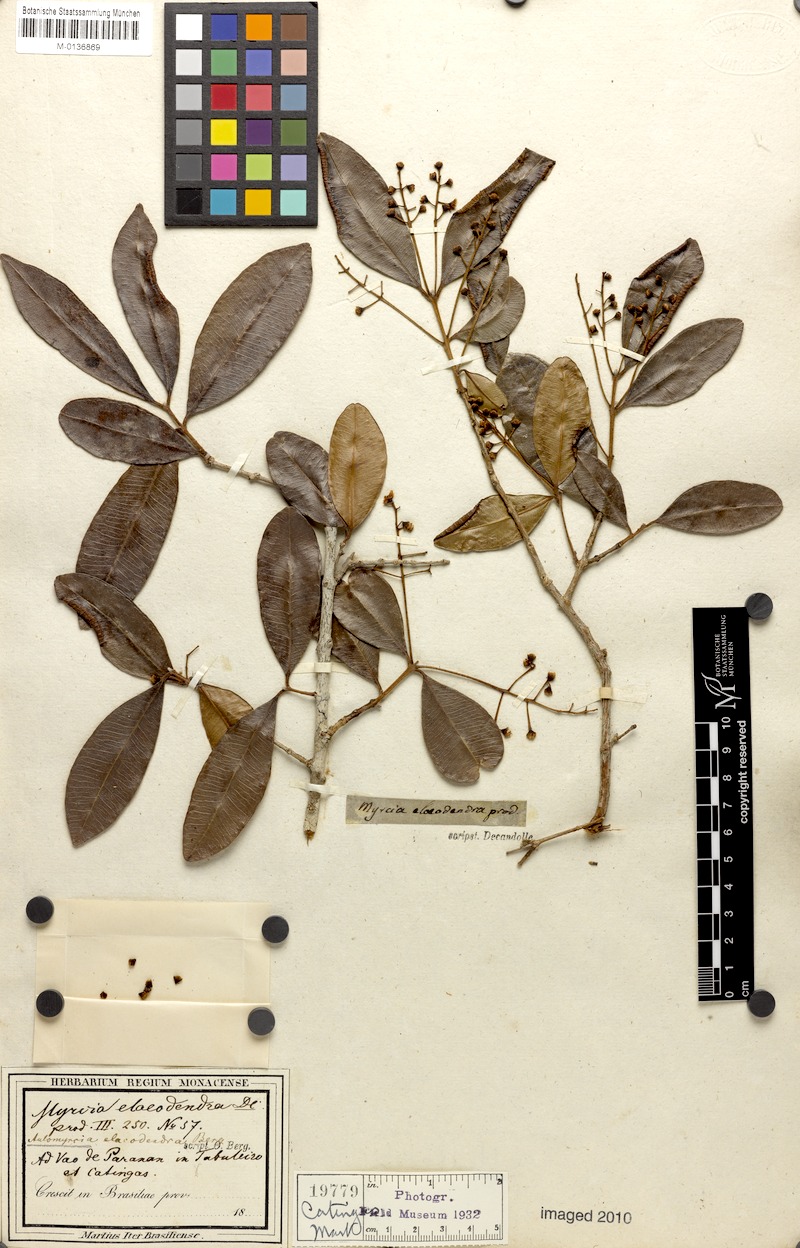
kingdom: Plantae
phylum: Tracheophyta
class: Magnoliopsida
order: Myrtales
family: Myrtaceae
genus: Myrcia
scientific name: Myrcia guianensis
